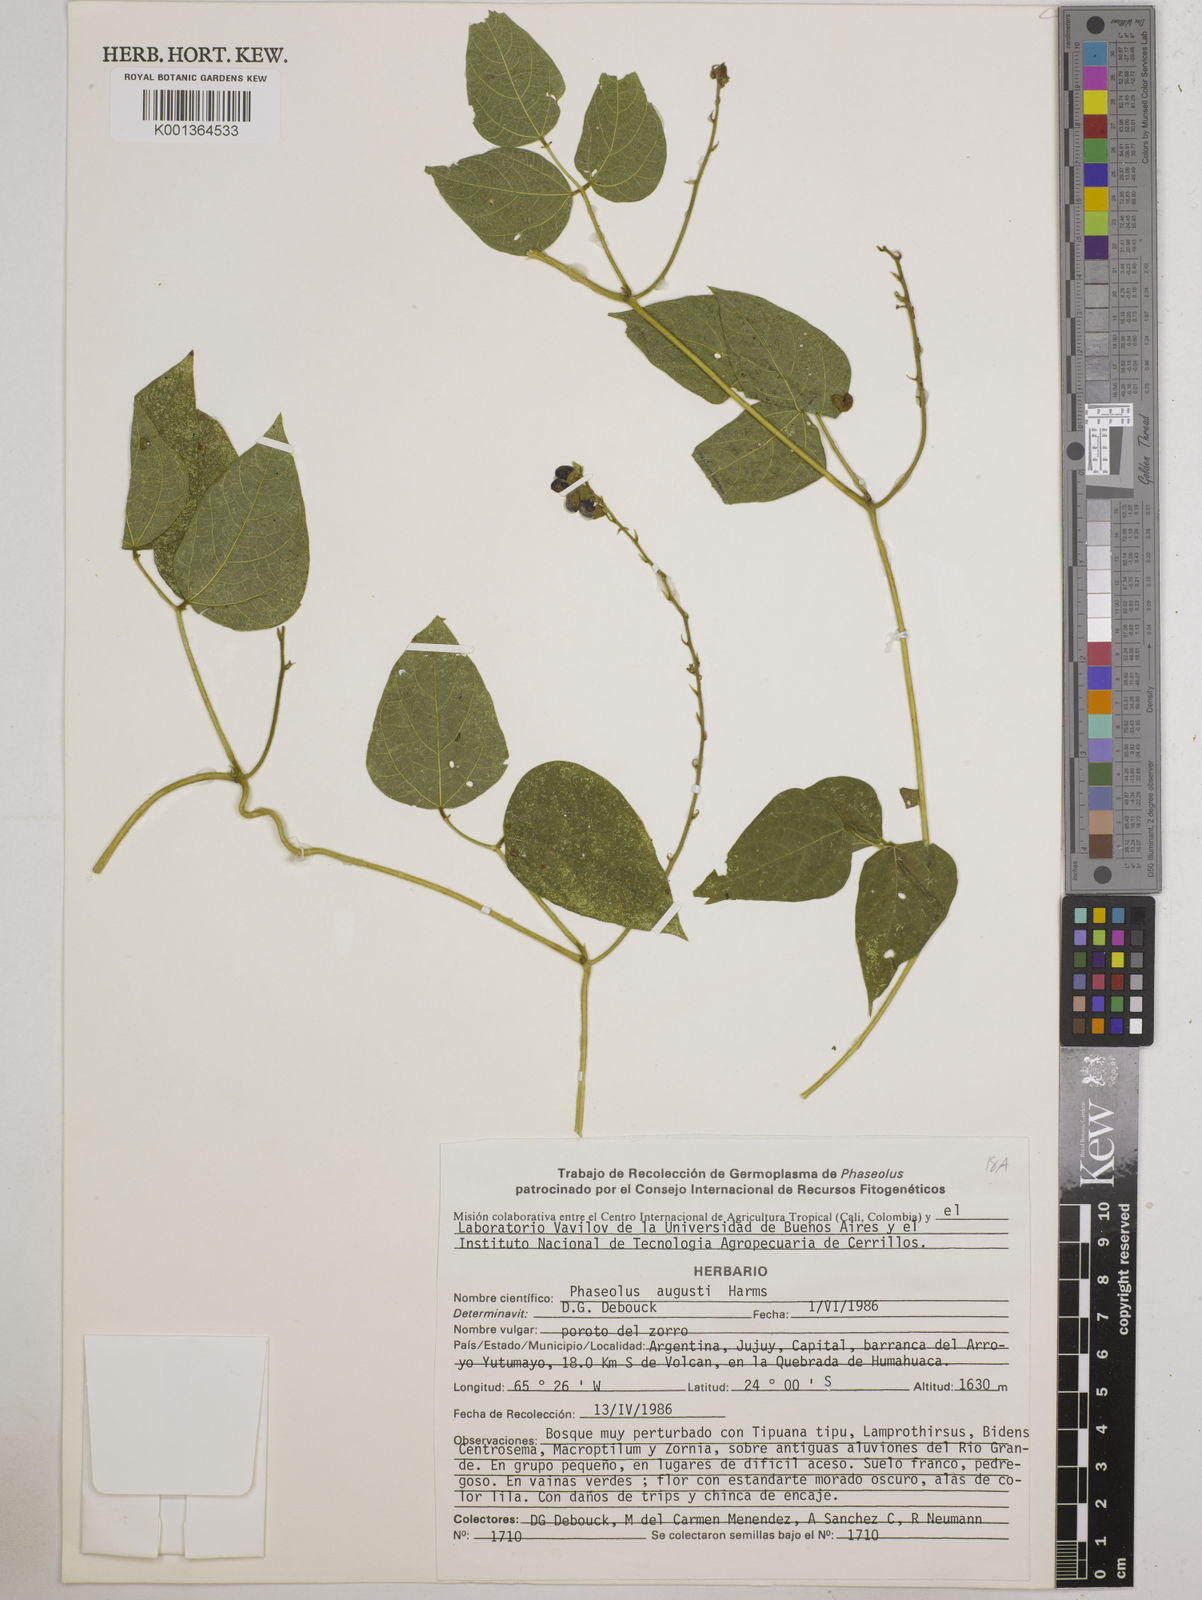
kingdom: Plantae
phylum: Tracheophyta
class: Magnoliopsida
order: Fabales
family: Fabaceae
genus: Phaseolus
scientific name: Phaseolus augusti
